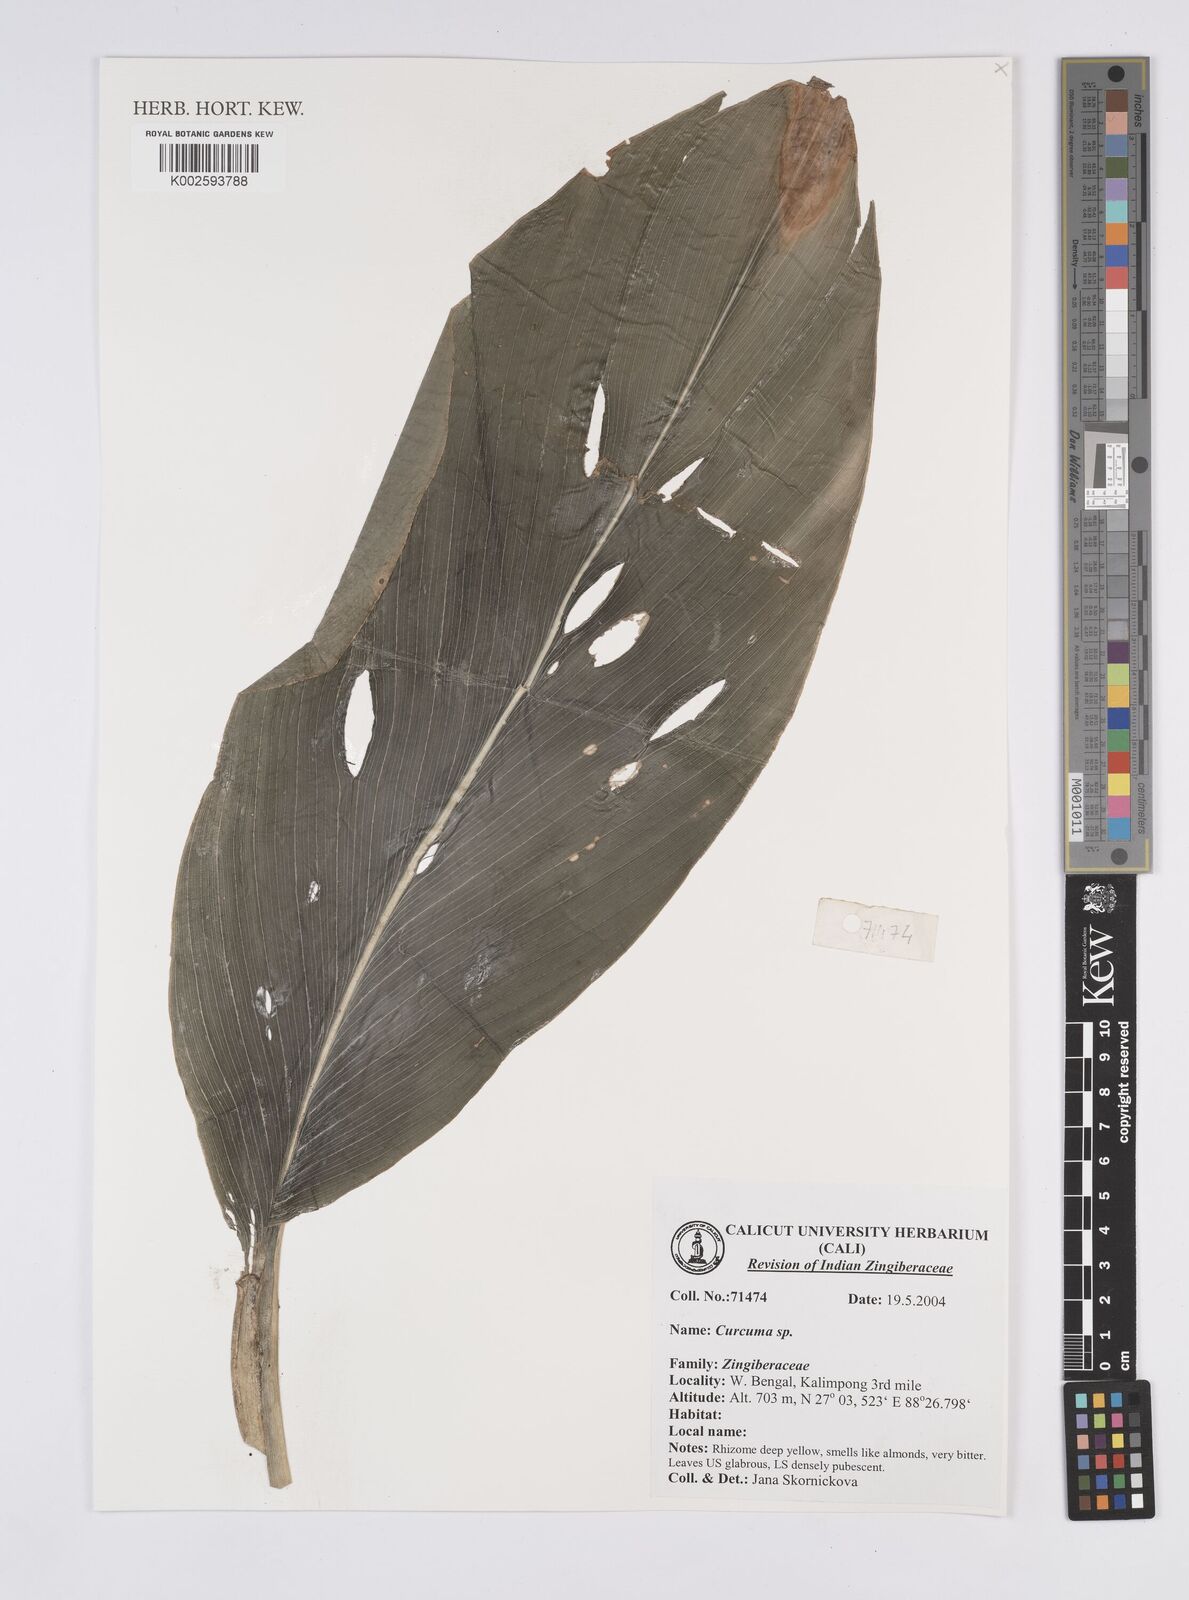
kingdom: Plantae
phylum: Tracheophyta
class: Liliopsida
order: Zingiberales
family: Zingiberaceae
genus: Curcuma
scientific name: Curcuma
